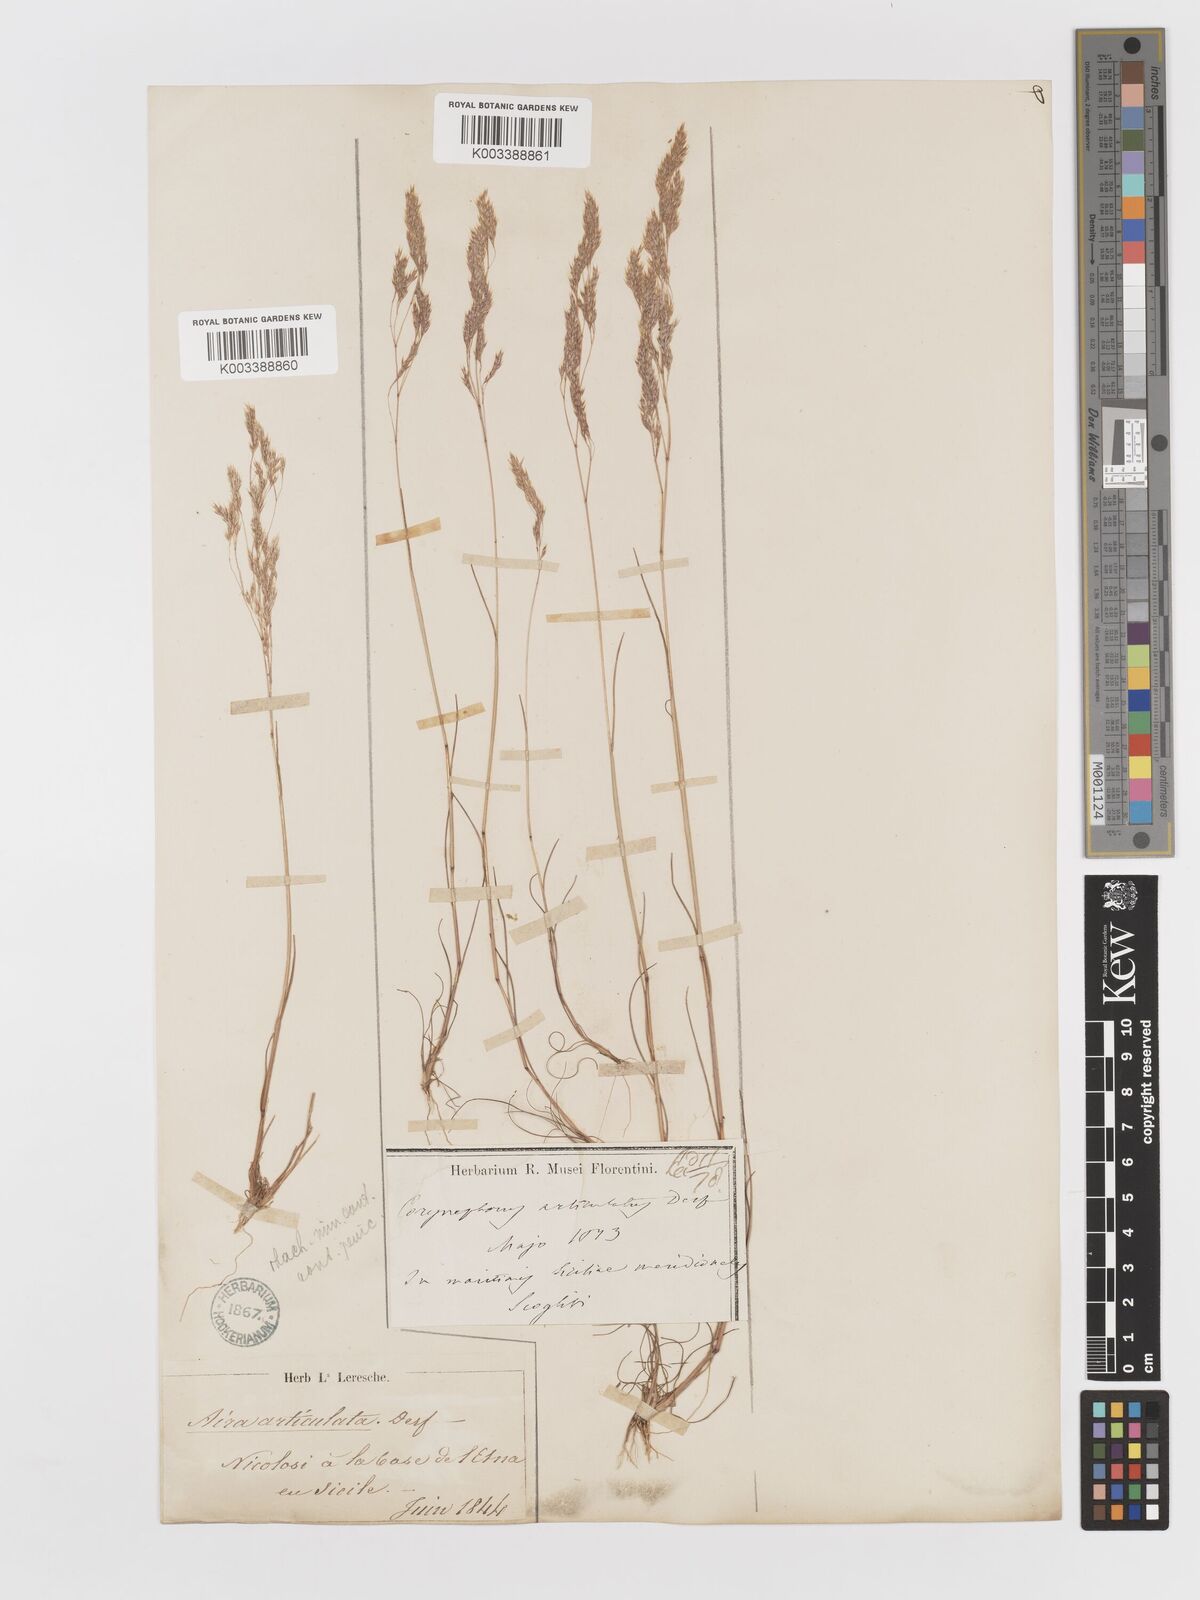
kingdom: Plantae
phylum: Tracheophyta
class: Liliopsida
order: Poales
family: Poaceae
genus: Corynephorus
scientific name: Corynephorus divaricatus
